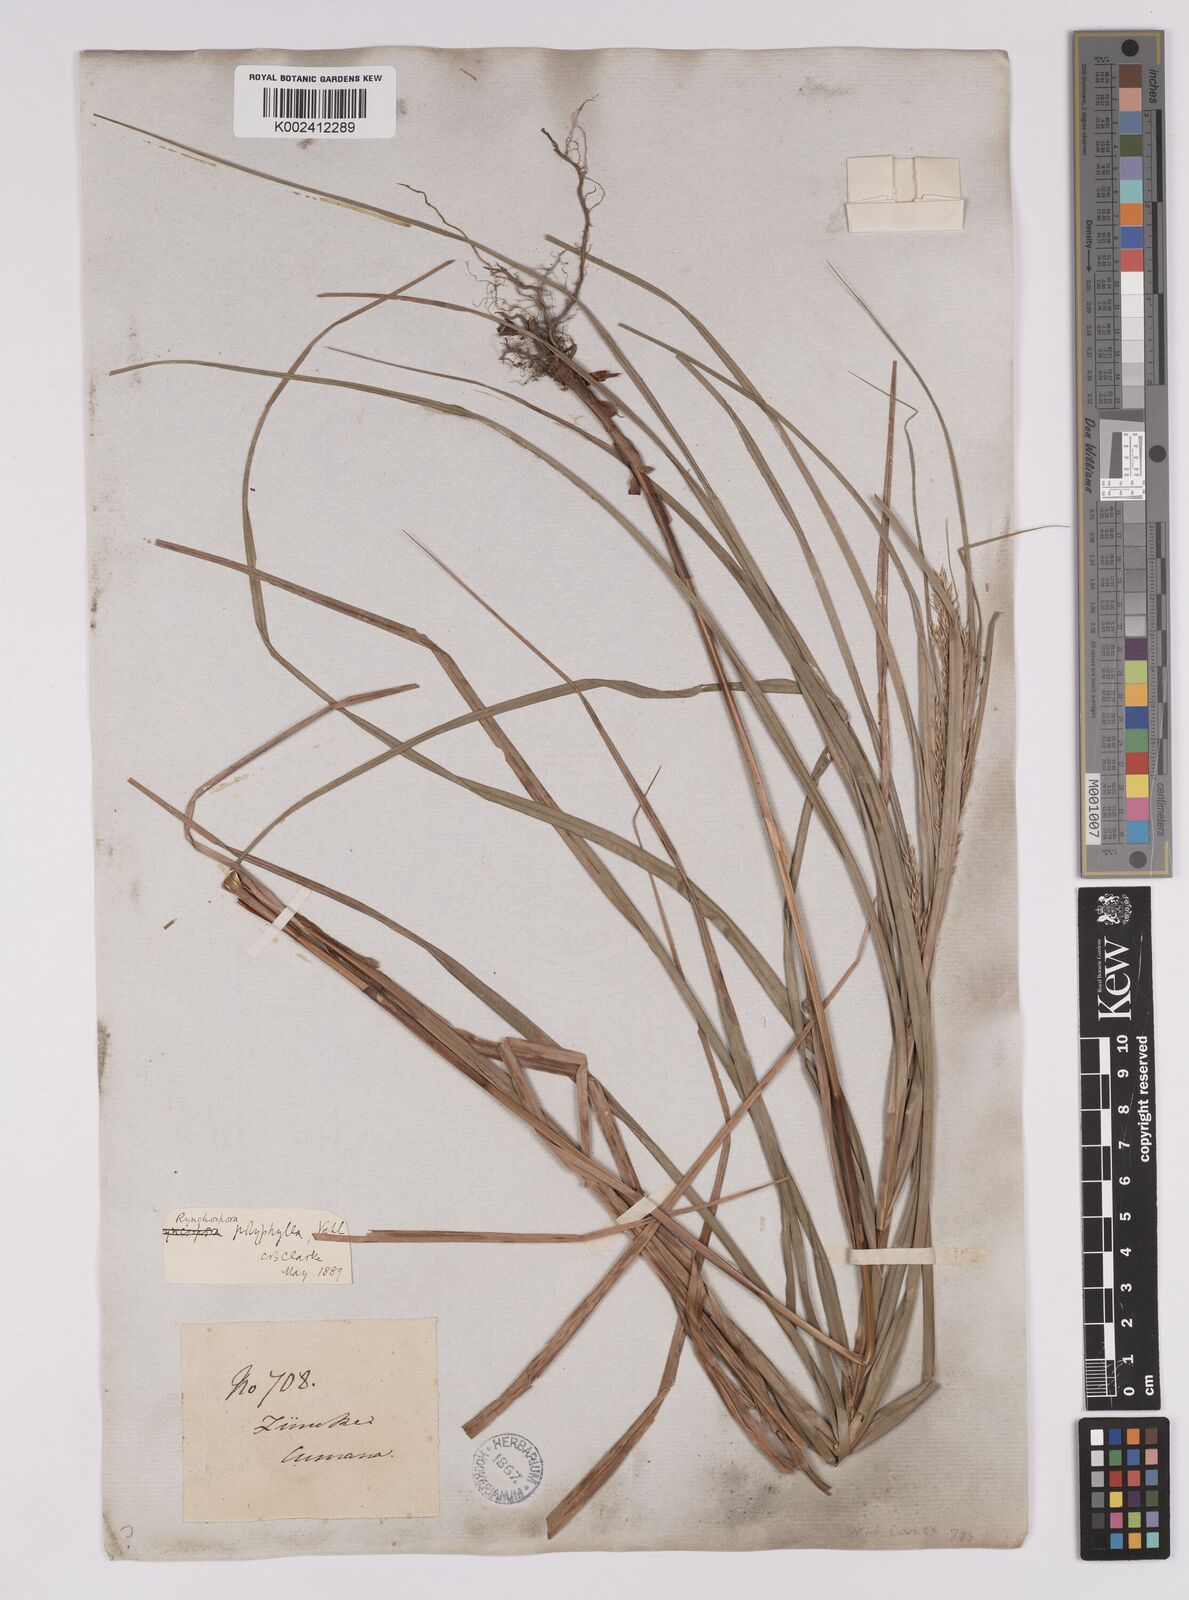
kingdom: Plantae
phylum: Tracheophyta
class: Liliopsida
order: Poales
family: Cyperaceae
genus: Rhynchospora
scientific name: Rhynchospora polyphylla
